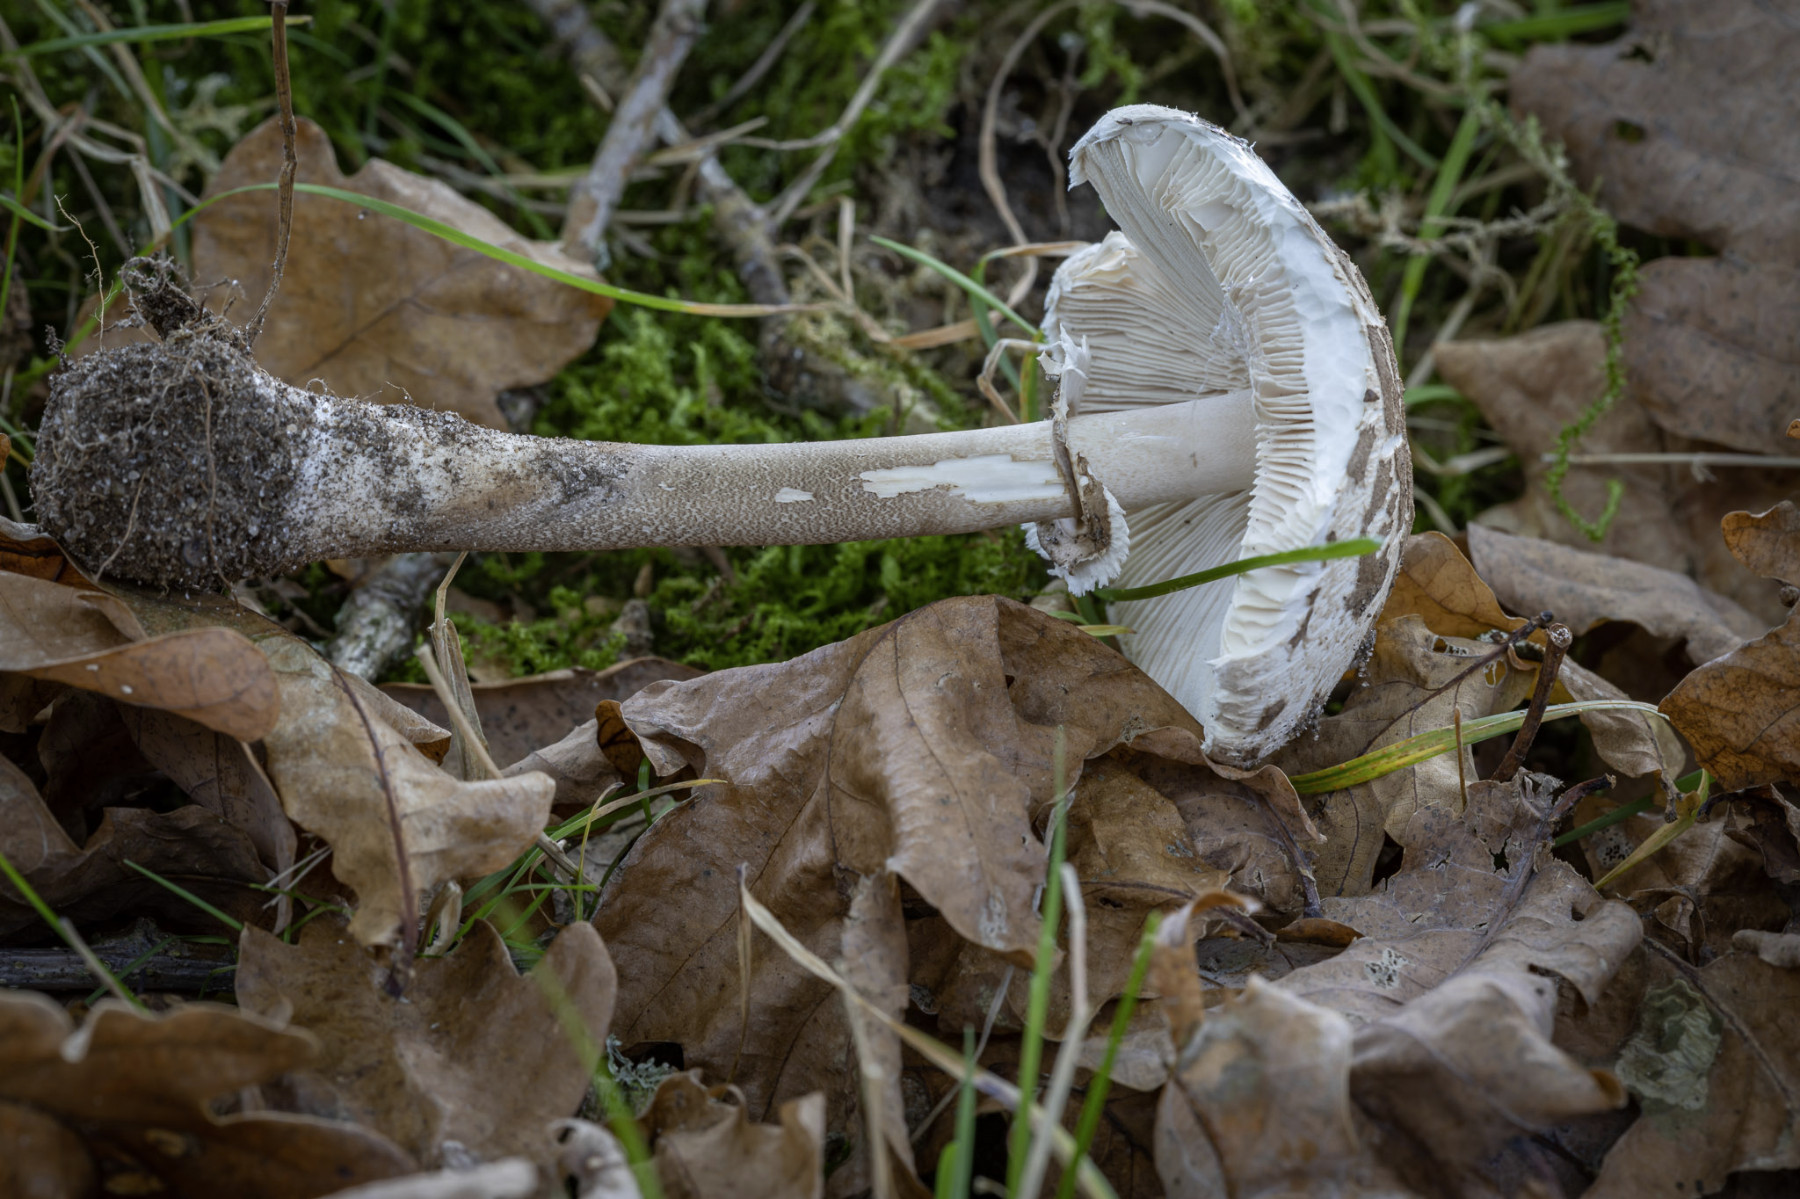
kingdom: Fungi
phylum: Basidiomycota
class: Agaricomycetes
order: Agaricales
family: Agaricaceae
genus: Macrolepiota
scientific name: Macrolepiota
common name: kæmpeparasolhat
